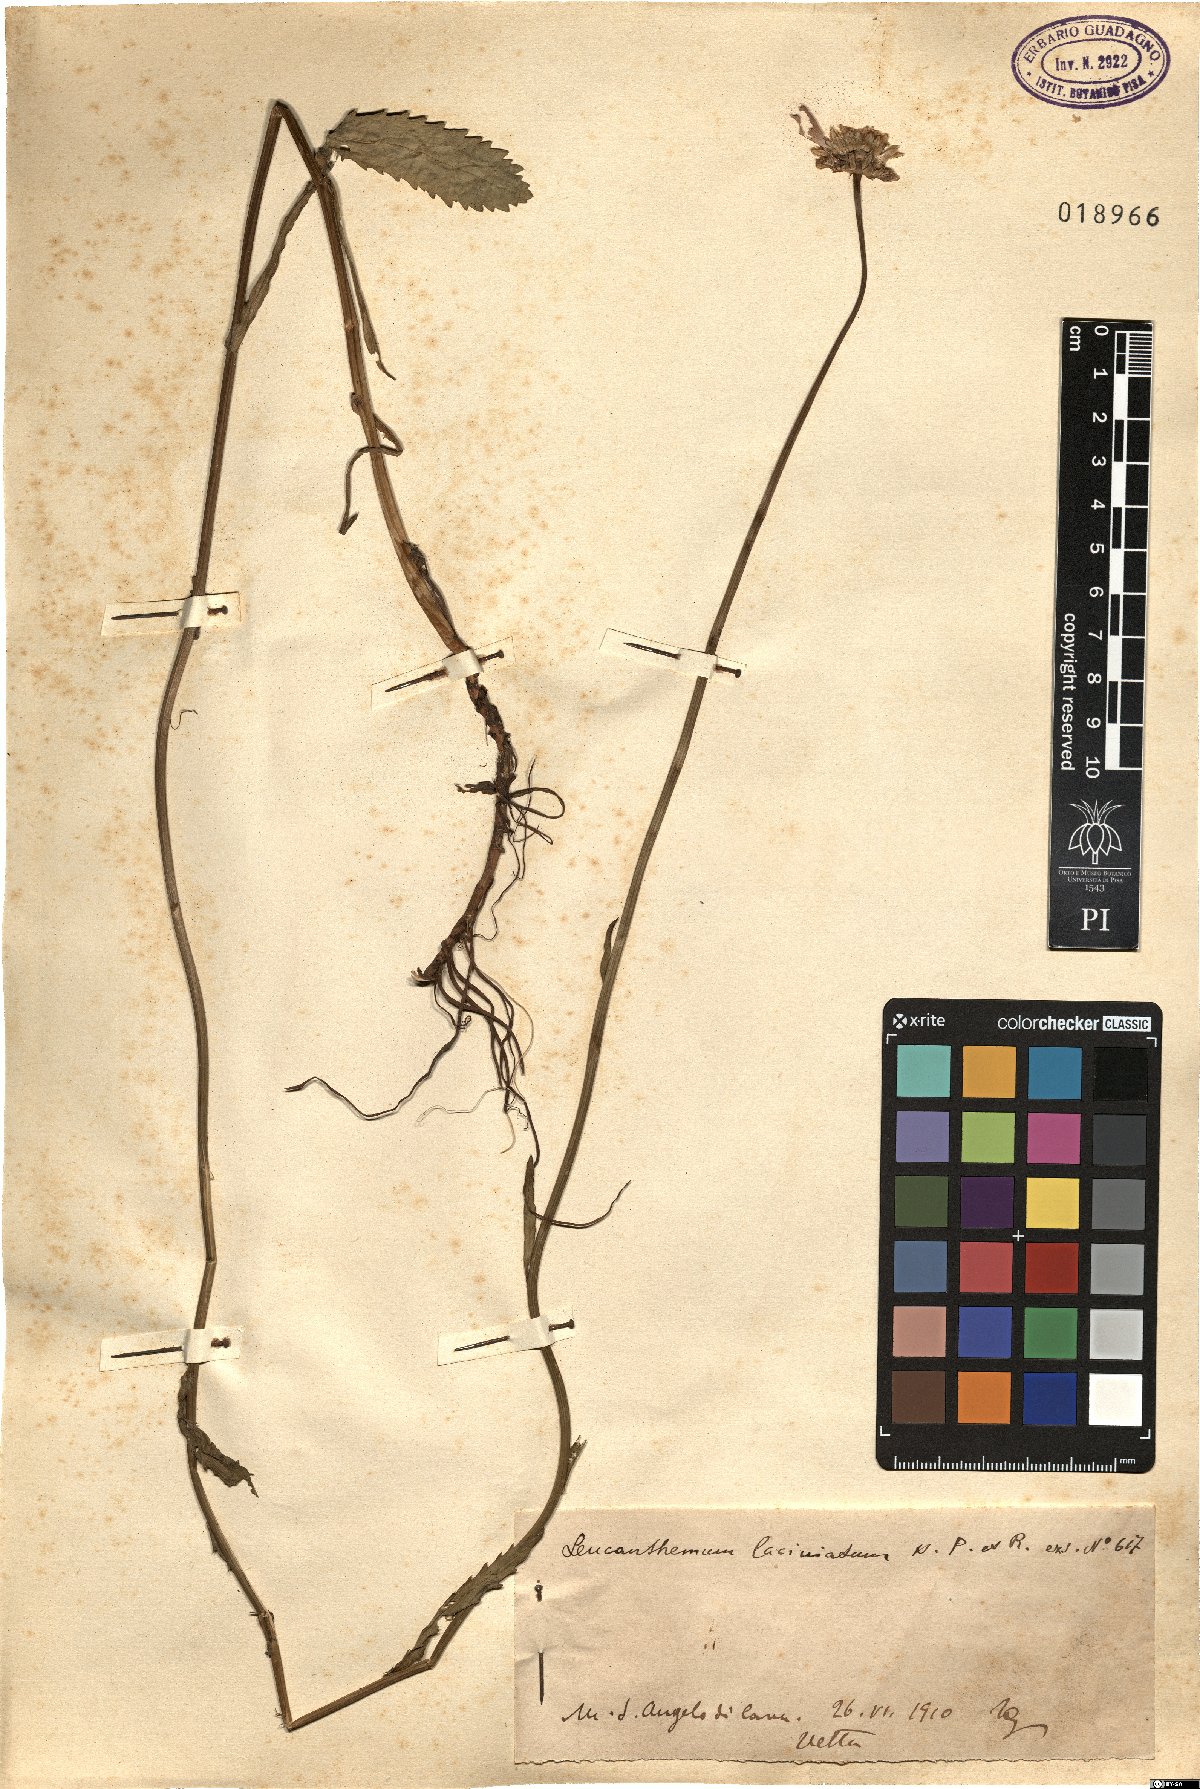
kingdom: Plantae
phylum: Tracheophyta
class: Magnoliopsida
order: Asterales
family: Asteraceae
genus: Leucanthemum
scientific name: Leucanthemum laciniatum
